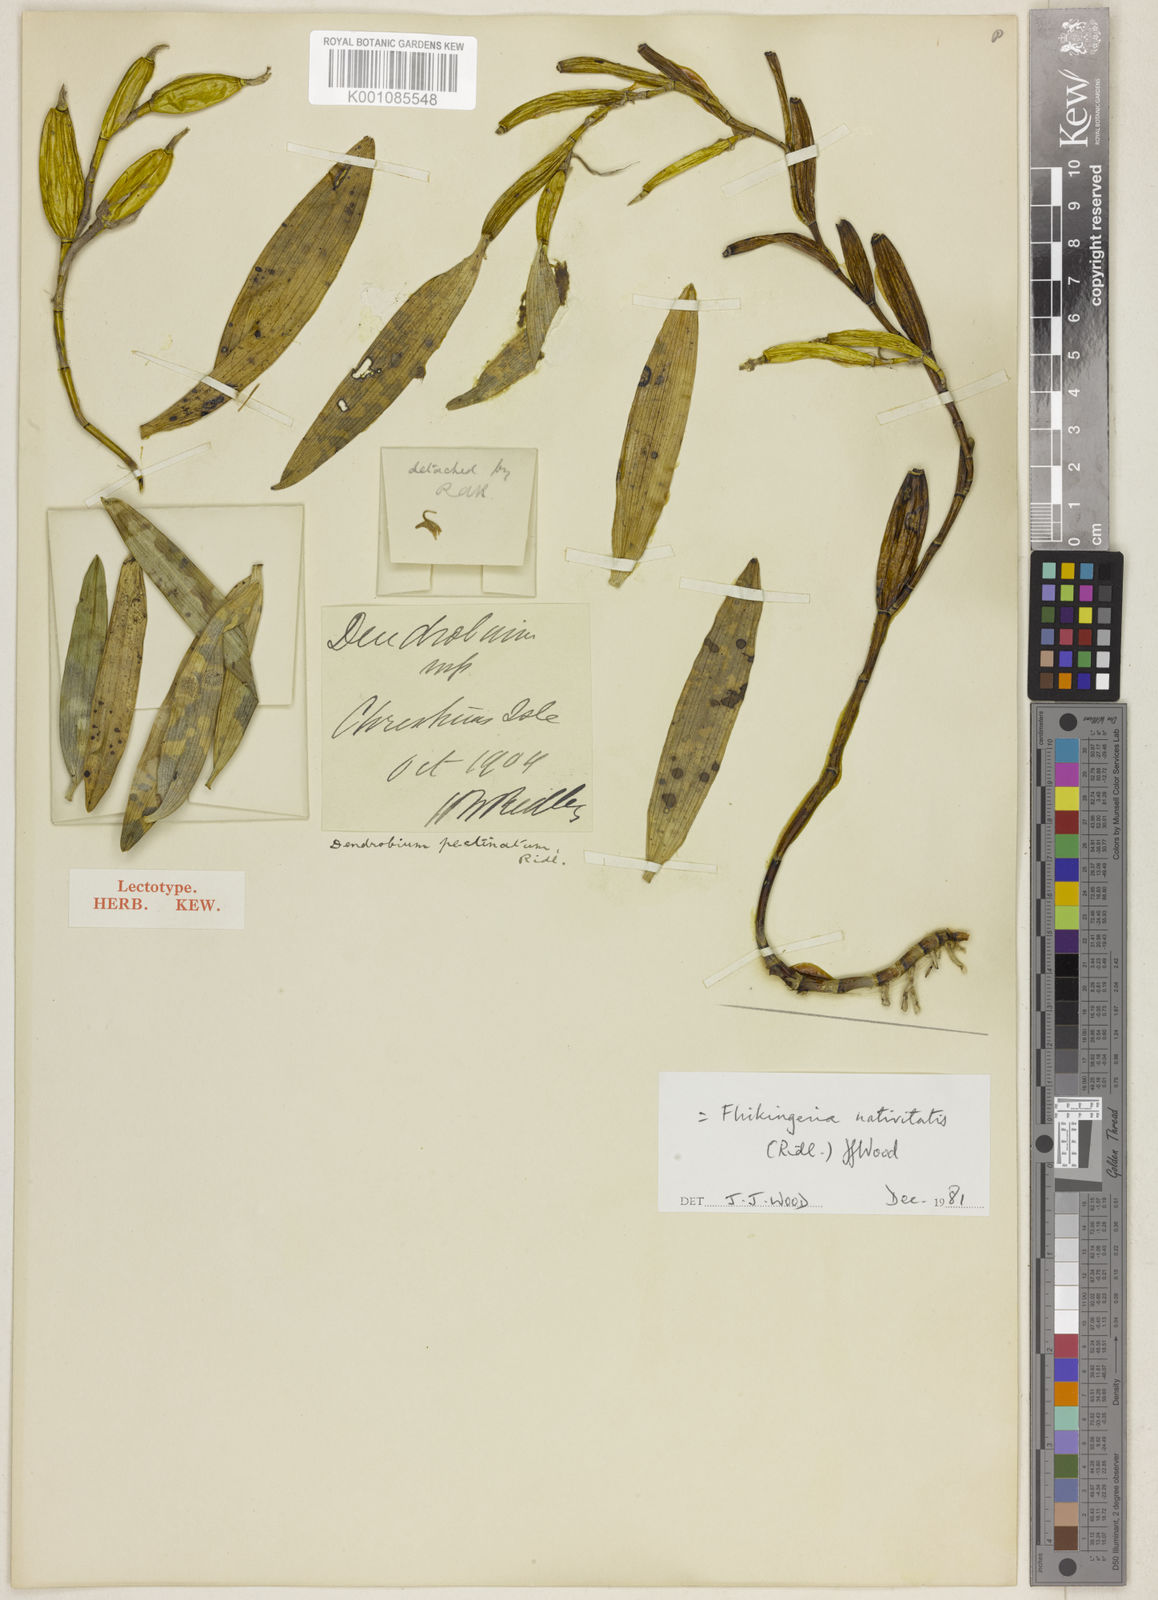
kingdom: Plantae
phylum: Tracheophyta
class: Liliopsida
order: Asparagales
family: Orchidaceae
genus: Dendrobium
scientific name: Dendrobium nativitatis
